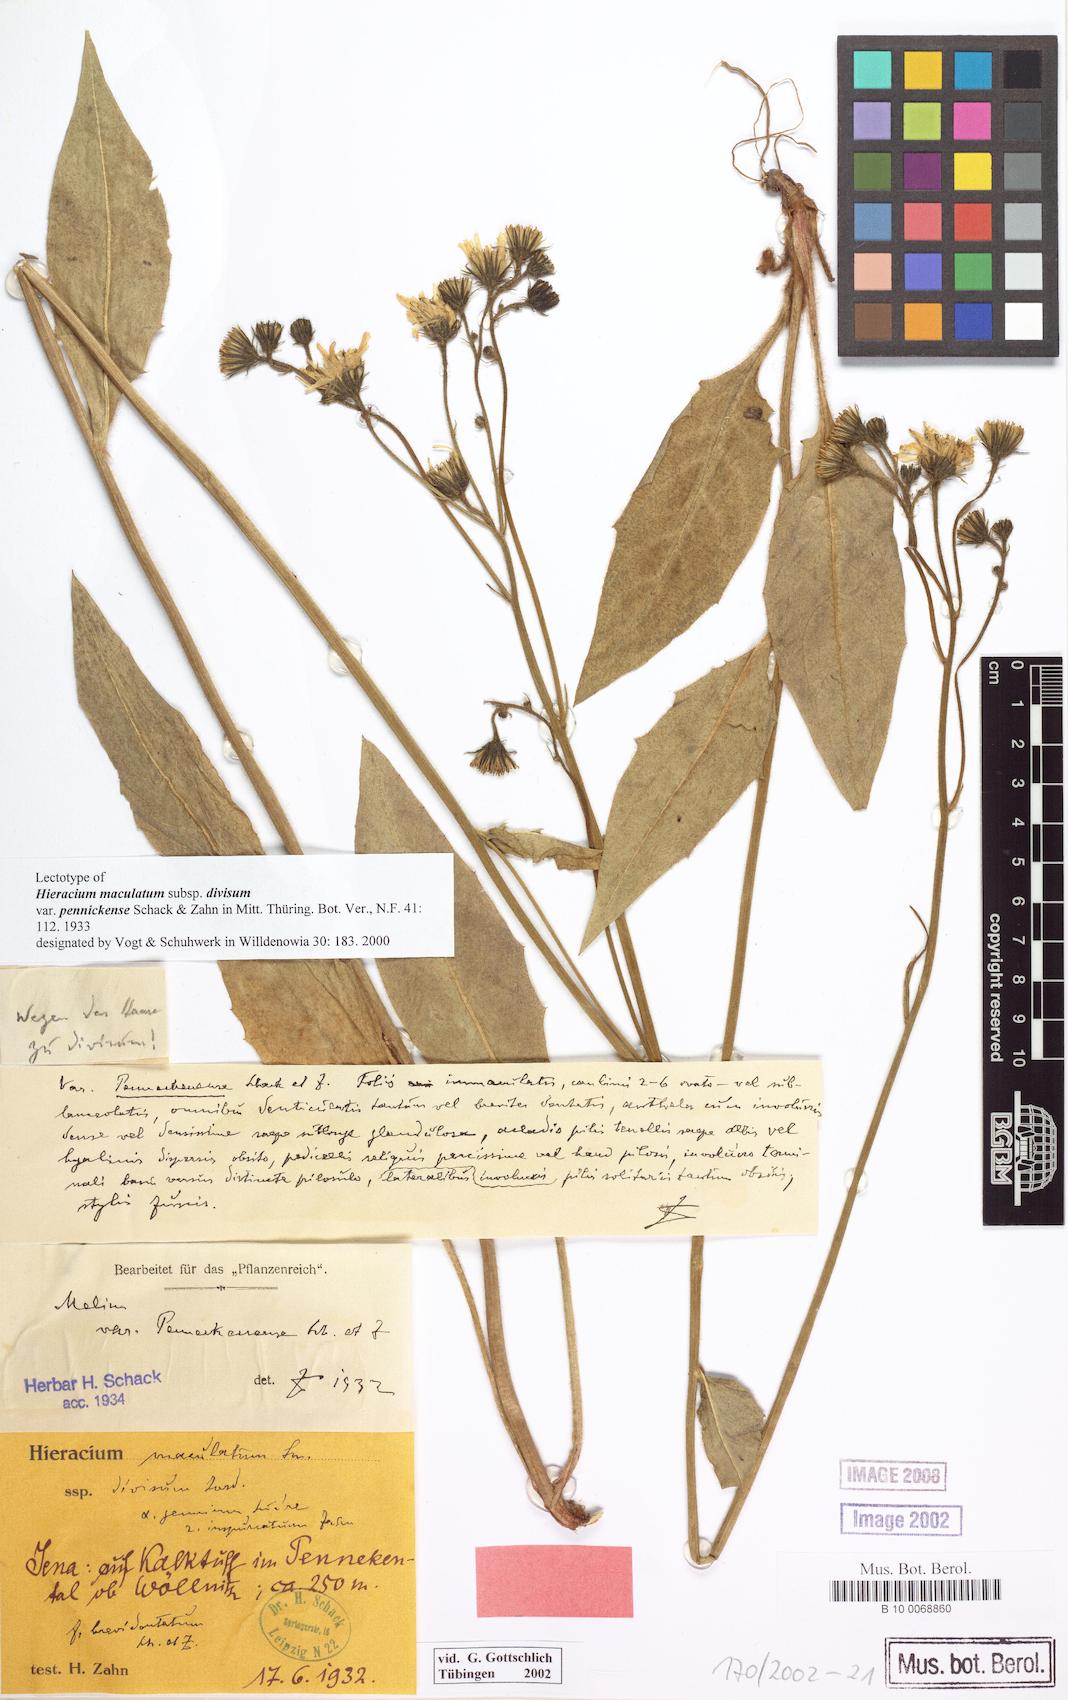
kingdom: Plantae
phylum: Tracheophyta
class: Magnoliopsida
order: Asterales
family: Asteraceae
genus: Hieracium
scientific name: Hieracium maculatum
